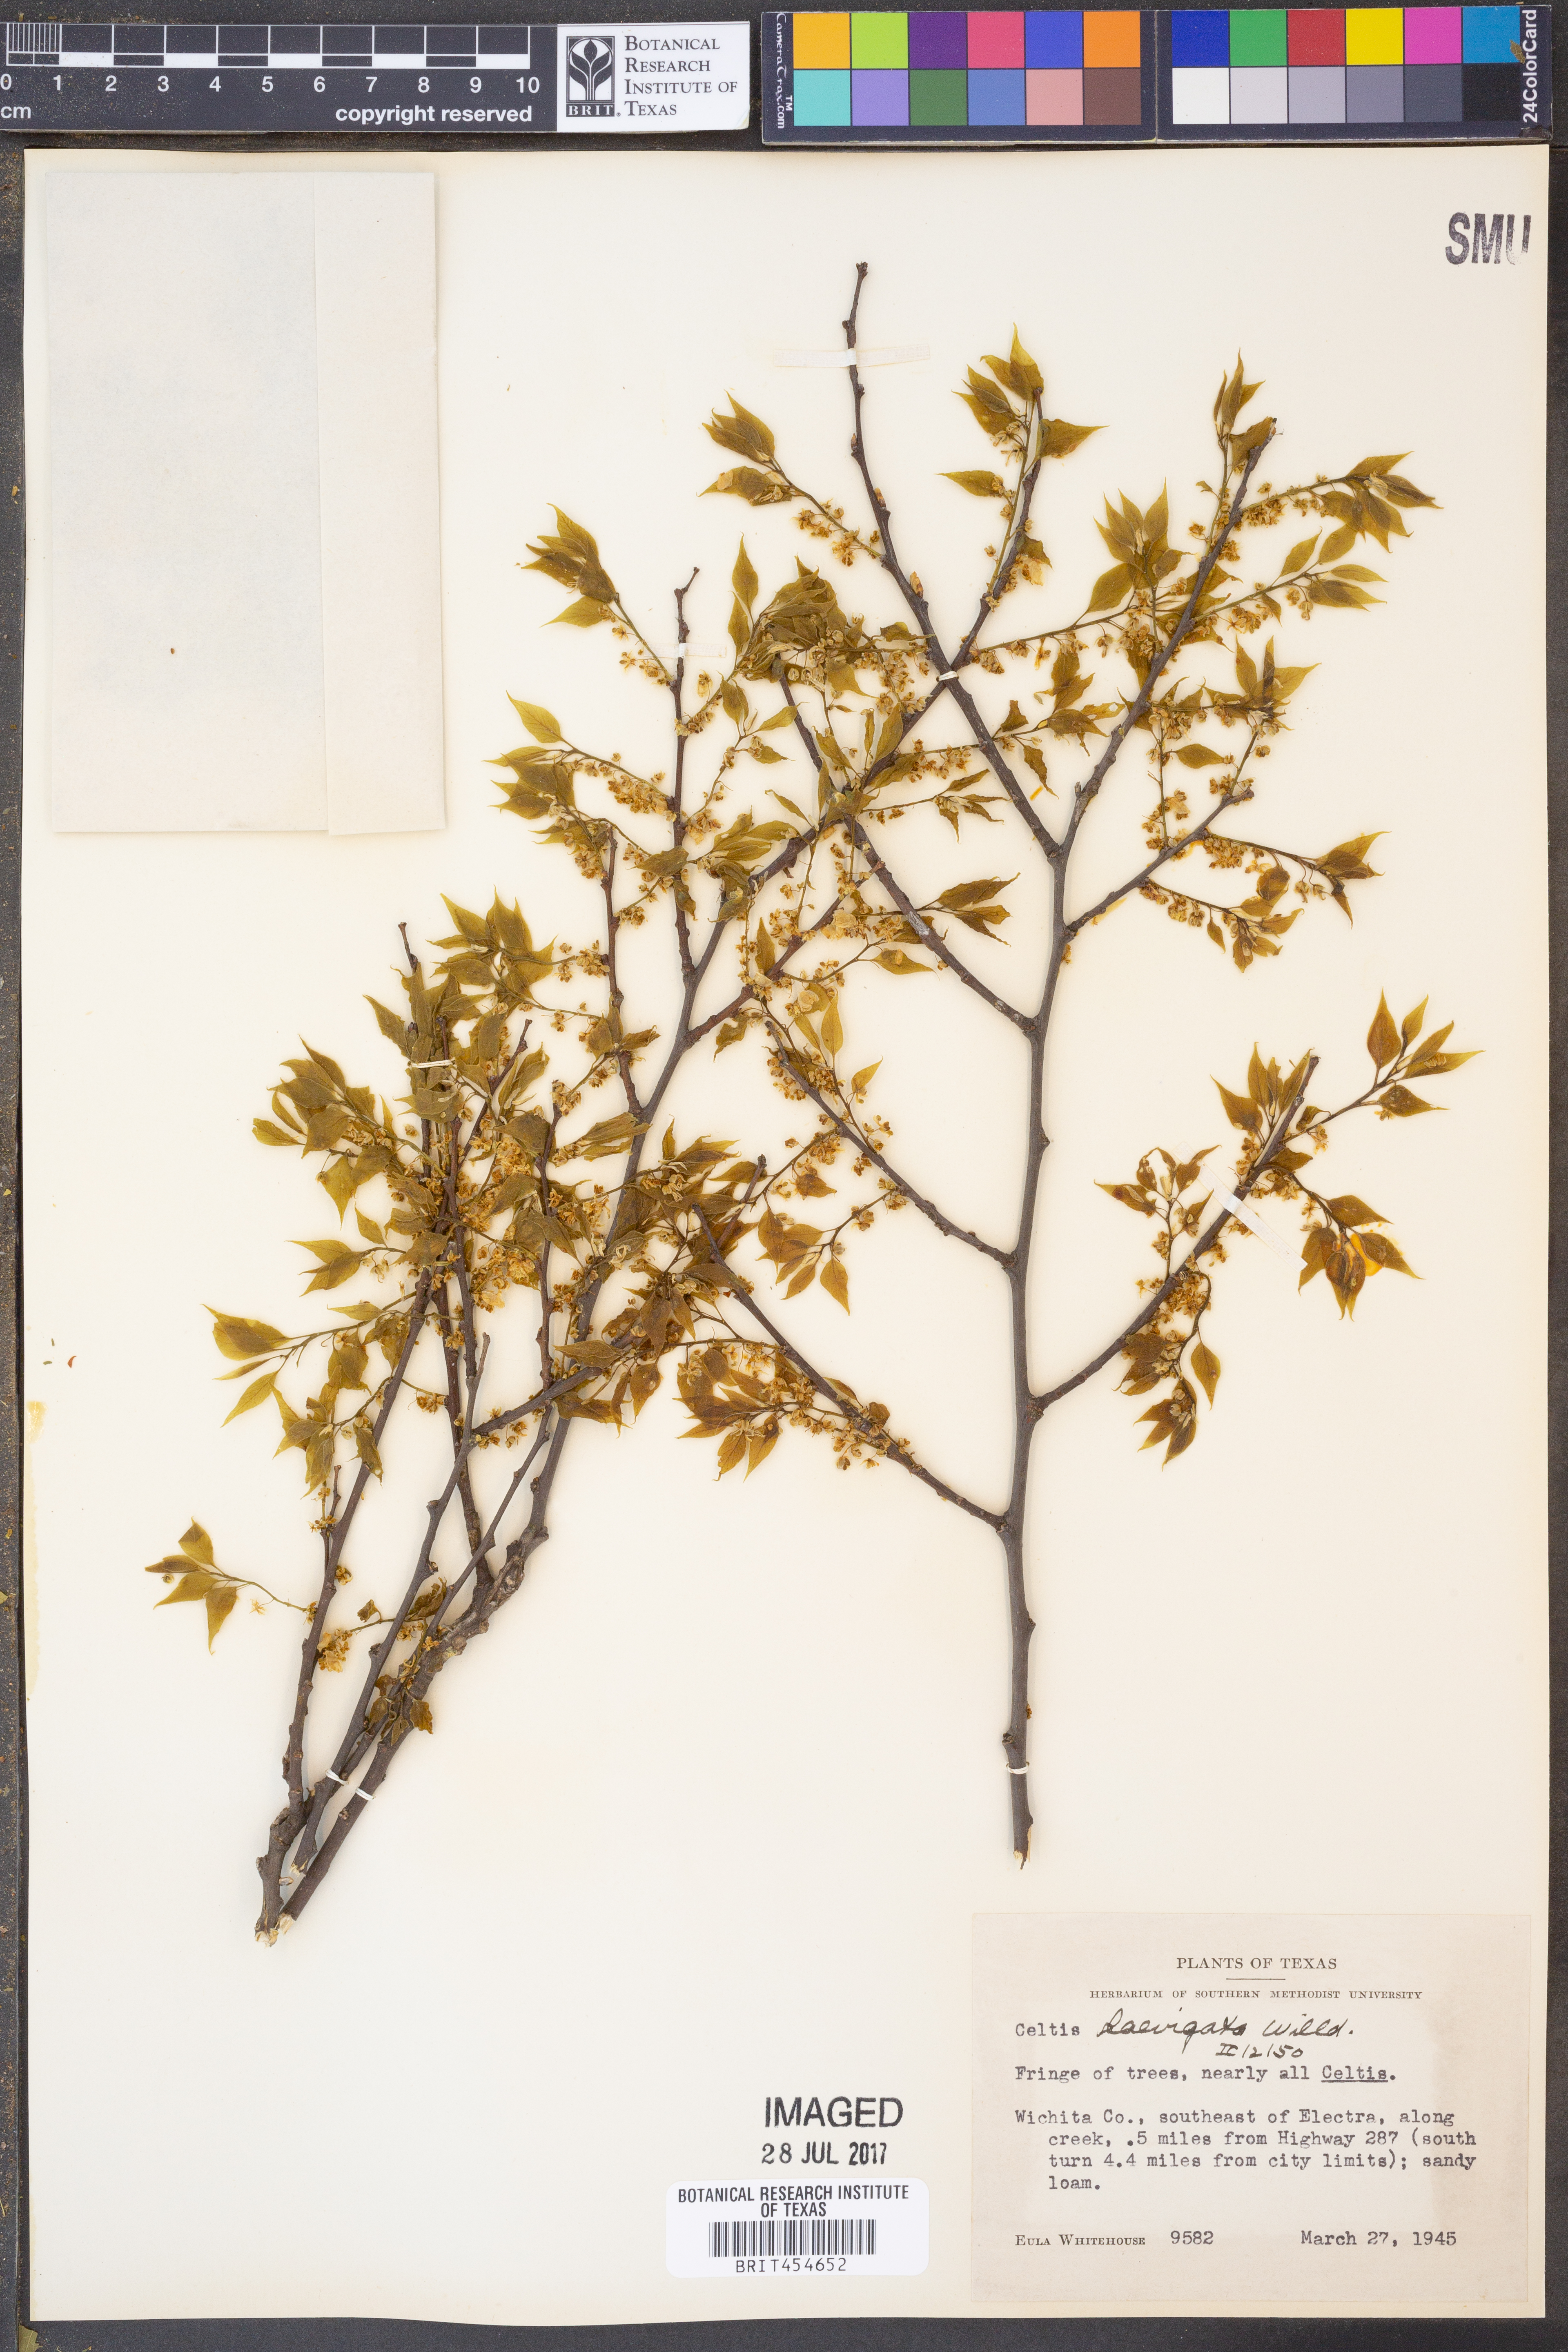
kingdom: Plantae
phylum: Tracheophyta
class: Magnoliopsida
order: Rosales
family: Cannabaceae
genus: Celtis
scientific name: Celtis laevigata
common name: Sugarberry
